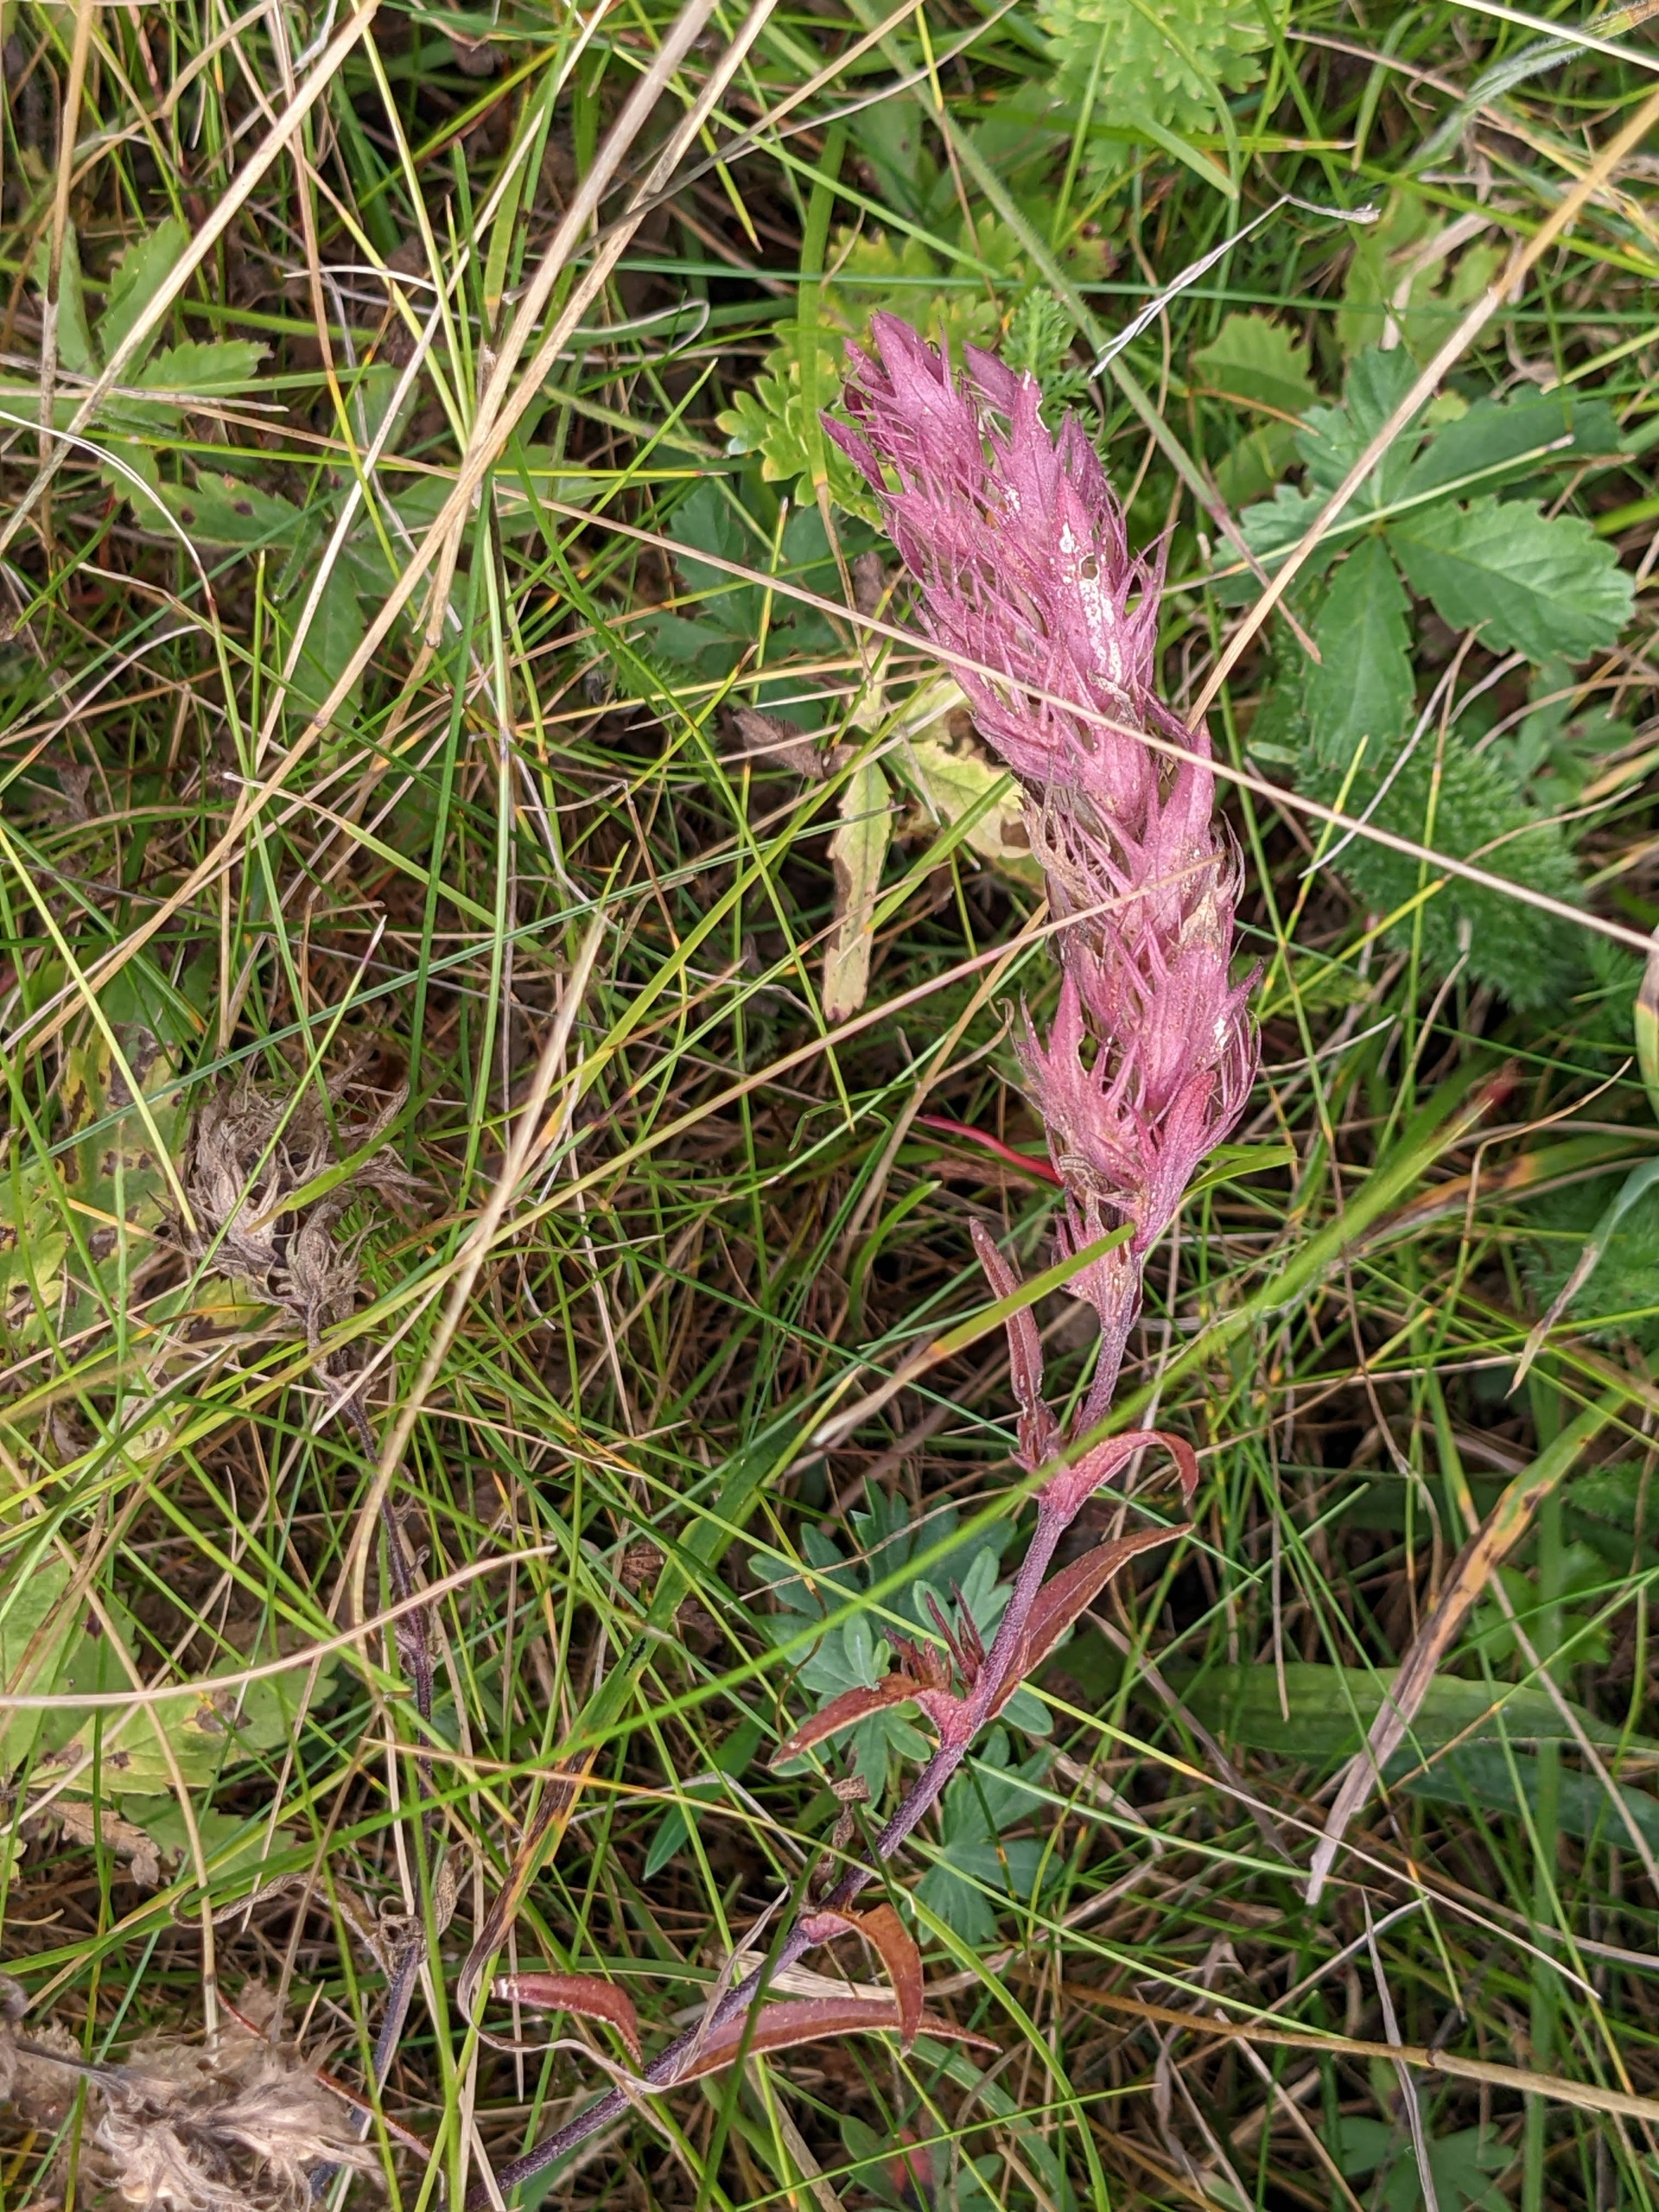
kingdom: Plantae
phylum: Tracheophyta
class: Magnoliopsida
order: Lamiales
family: Orobanchaceae
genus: Melampyrum
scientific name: Melampyrum arvense
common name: Ager-kohvede
